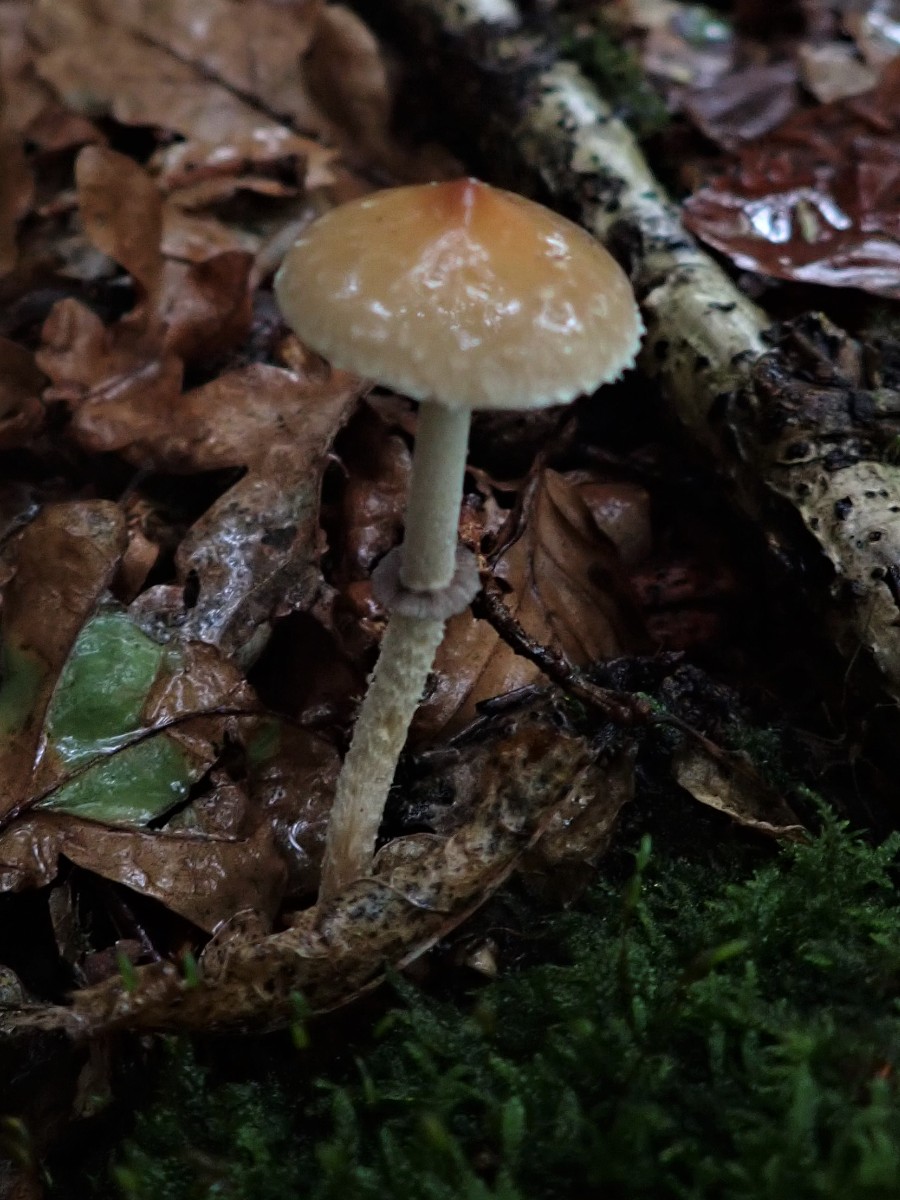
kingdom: Fungi
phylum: Basidiomycota
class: Agaricomycetes
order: Agaricales
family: Strophariaceae
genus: Leratiomyces
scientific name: Leratiomyces squamosus
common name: skællet bredblad
